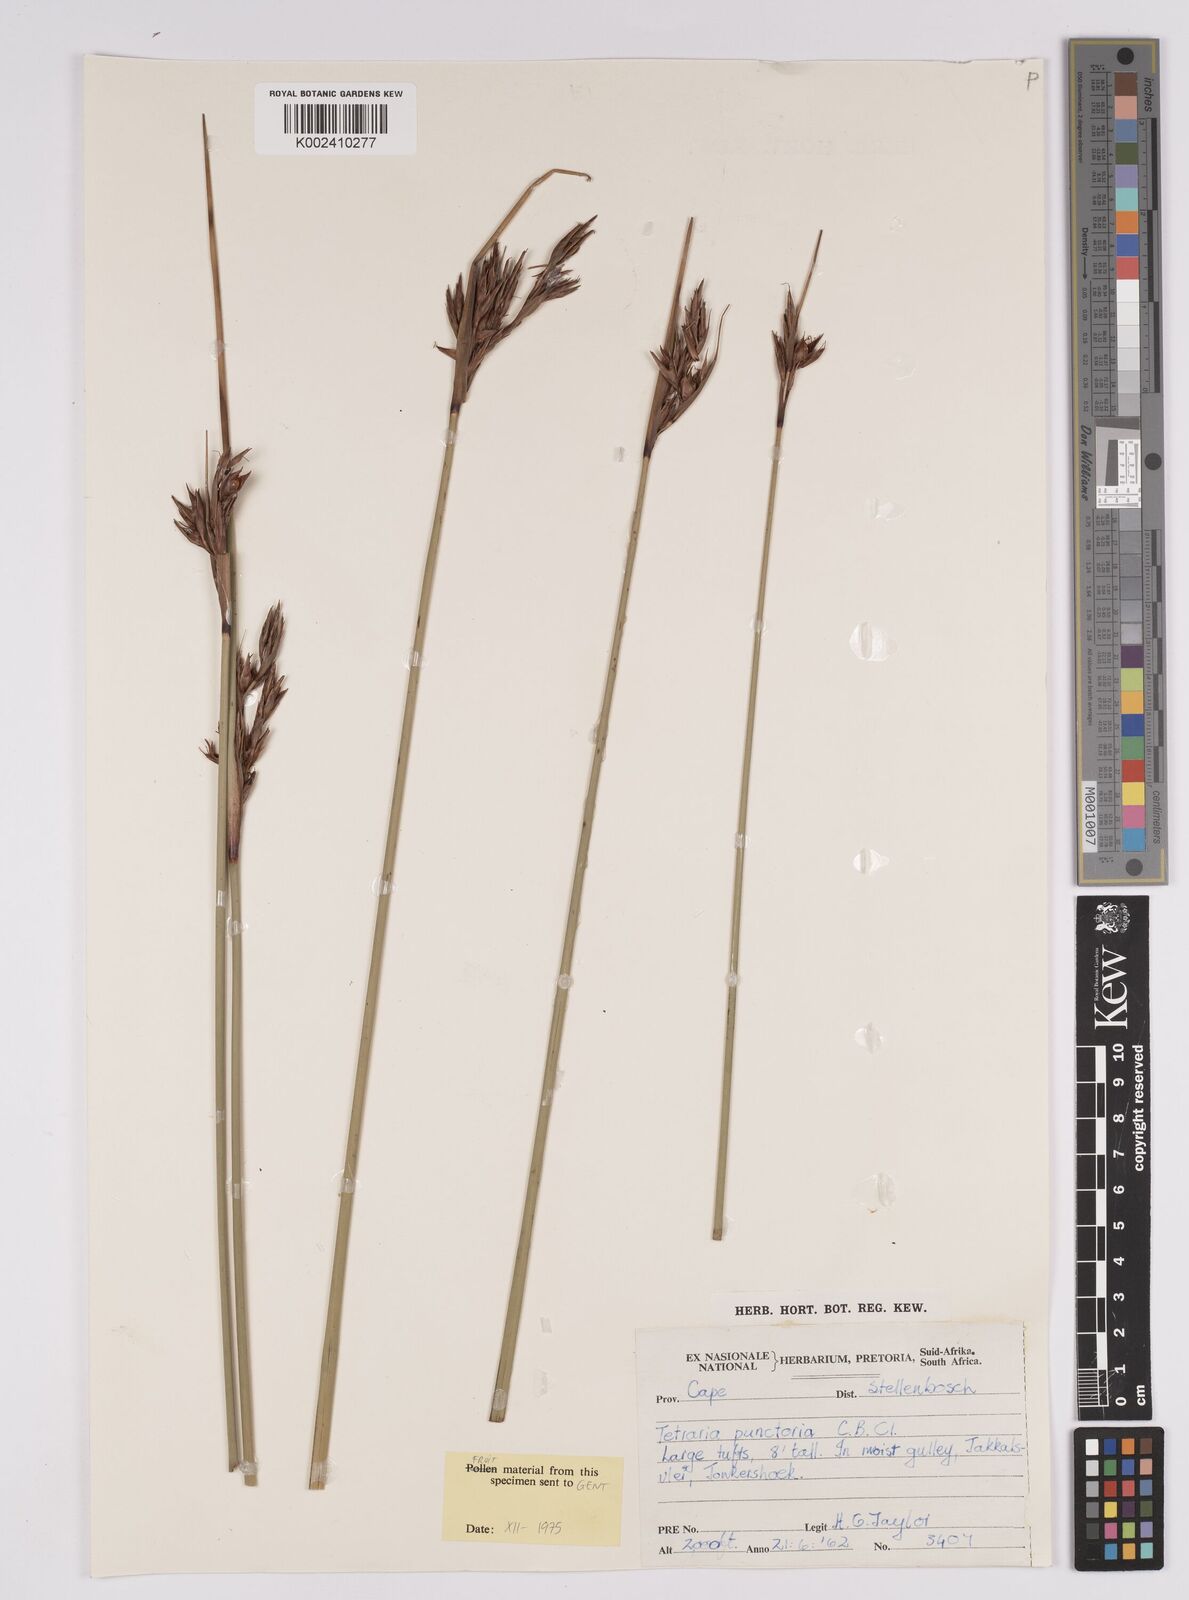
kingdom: Plantae
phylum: Tracheophyta
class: Liliopsida
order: Poales
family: Cyperaceae
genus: Neesenbeckia
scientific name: Neesenbeckia punctoria
